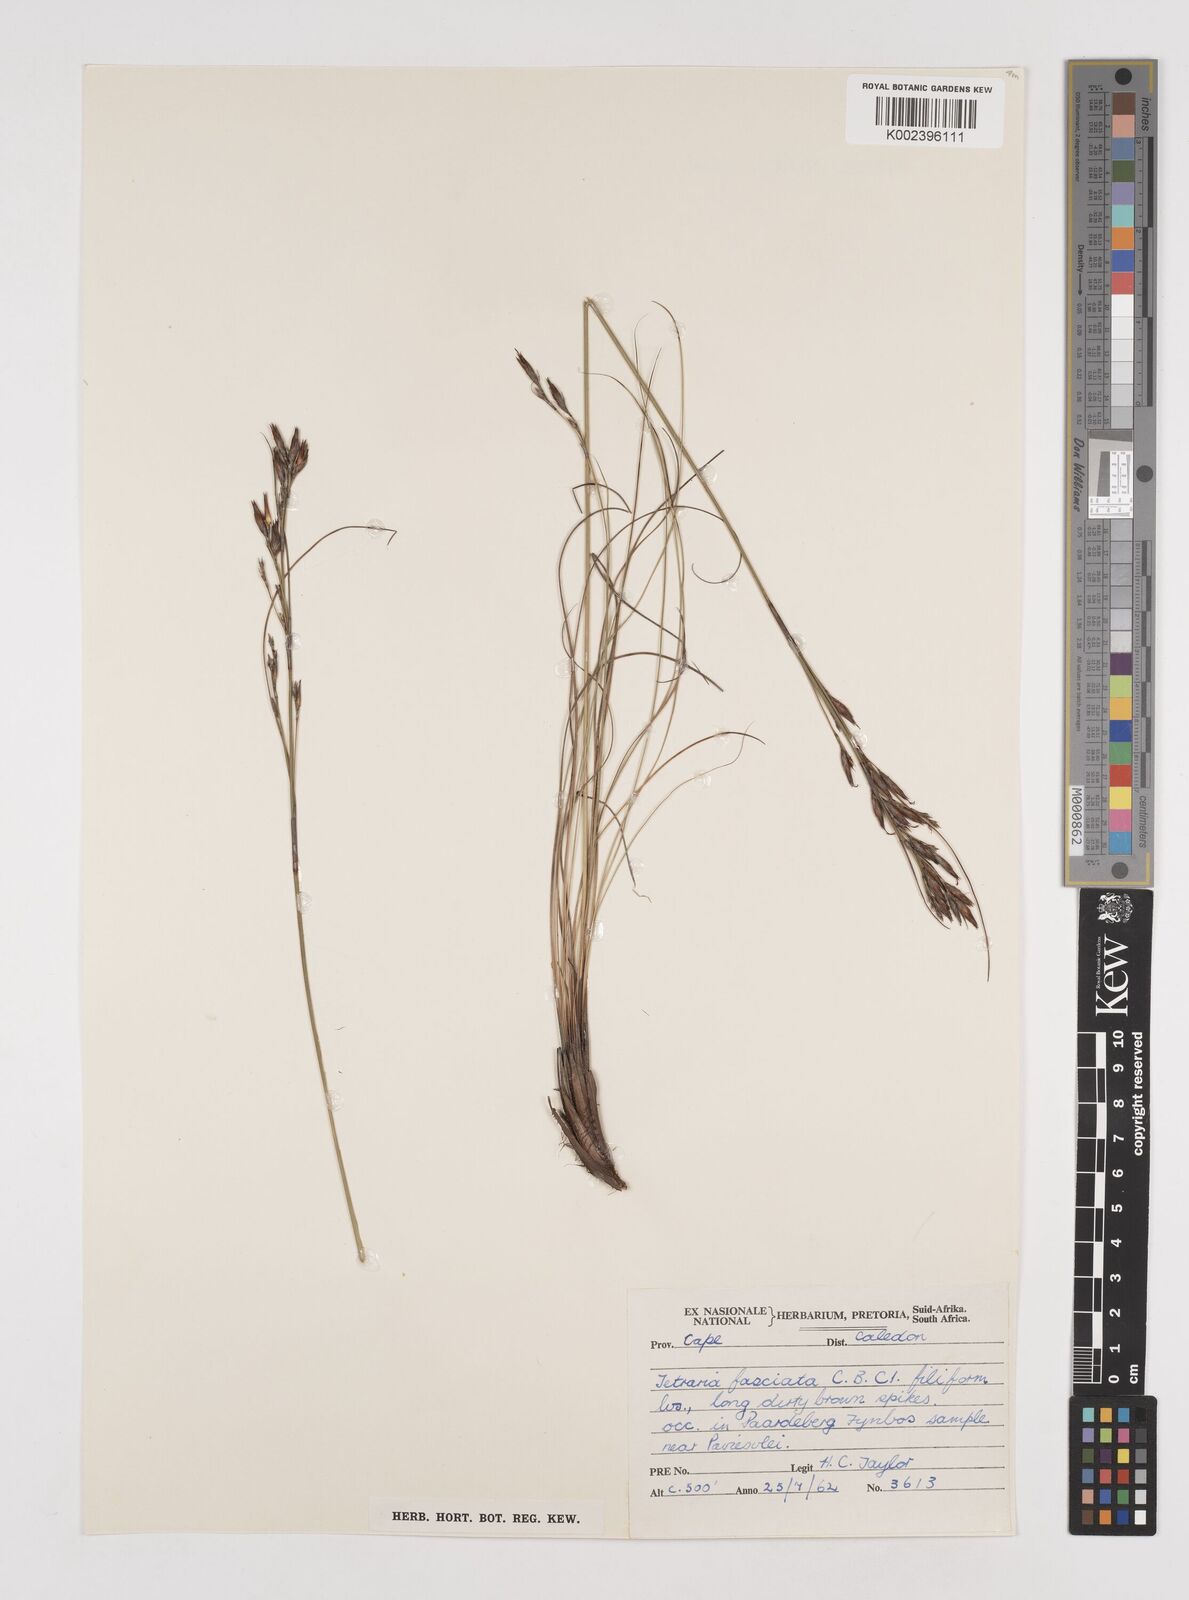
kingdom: Plantae
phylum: Tracheophyta
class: Liliopsida
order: Poales
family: Cyperaceae
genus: Tetraria
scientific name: Tetraria fasciata
